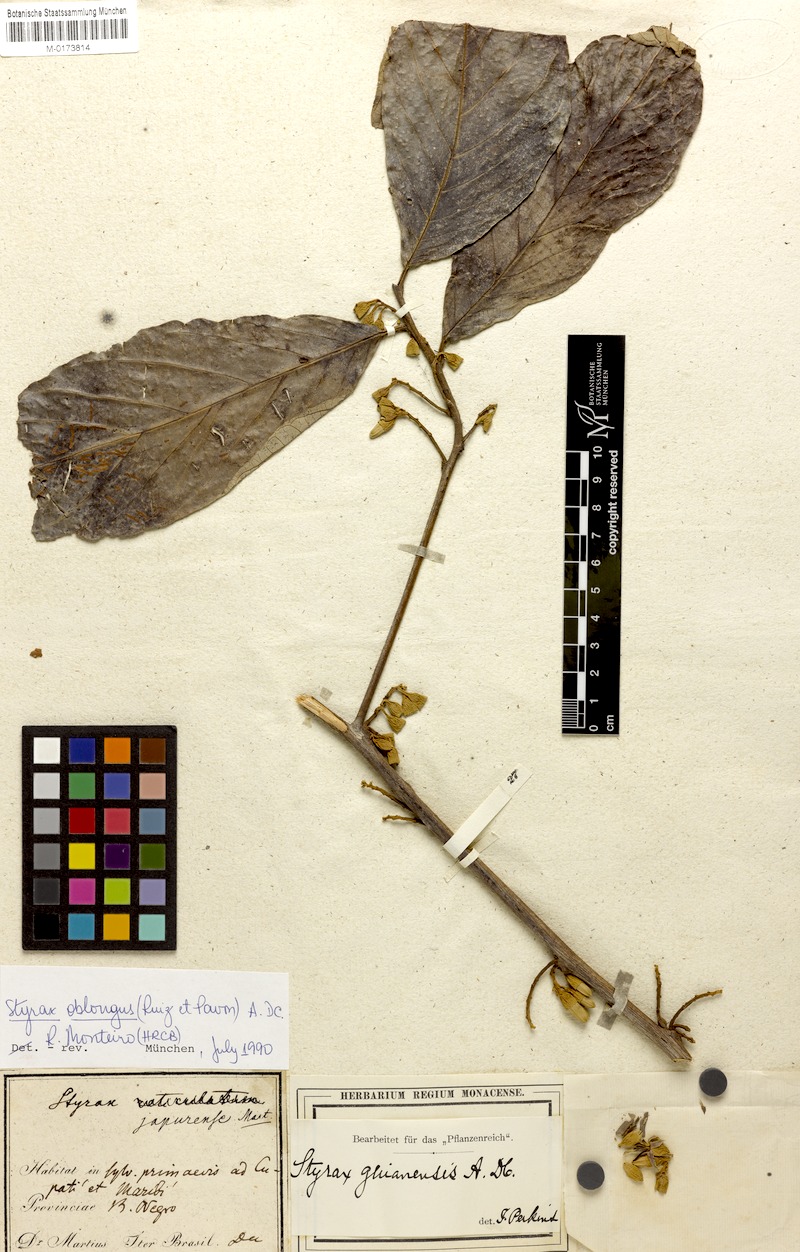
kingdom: Plantae
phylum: Tracheophyta
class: Magnoliopsida
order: Ericales
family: Styracaceae
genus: Styrax
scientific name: Styrax guyanensis
